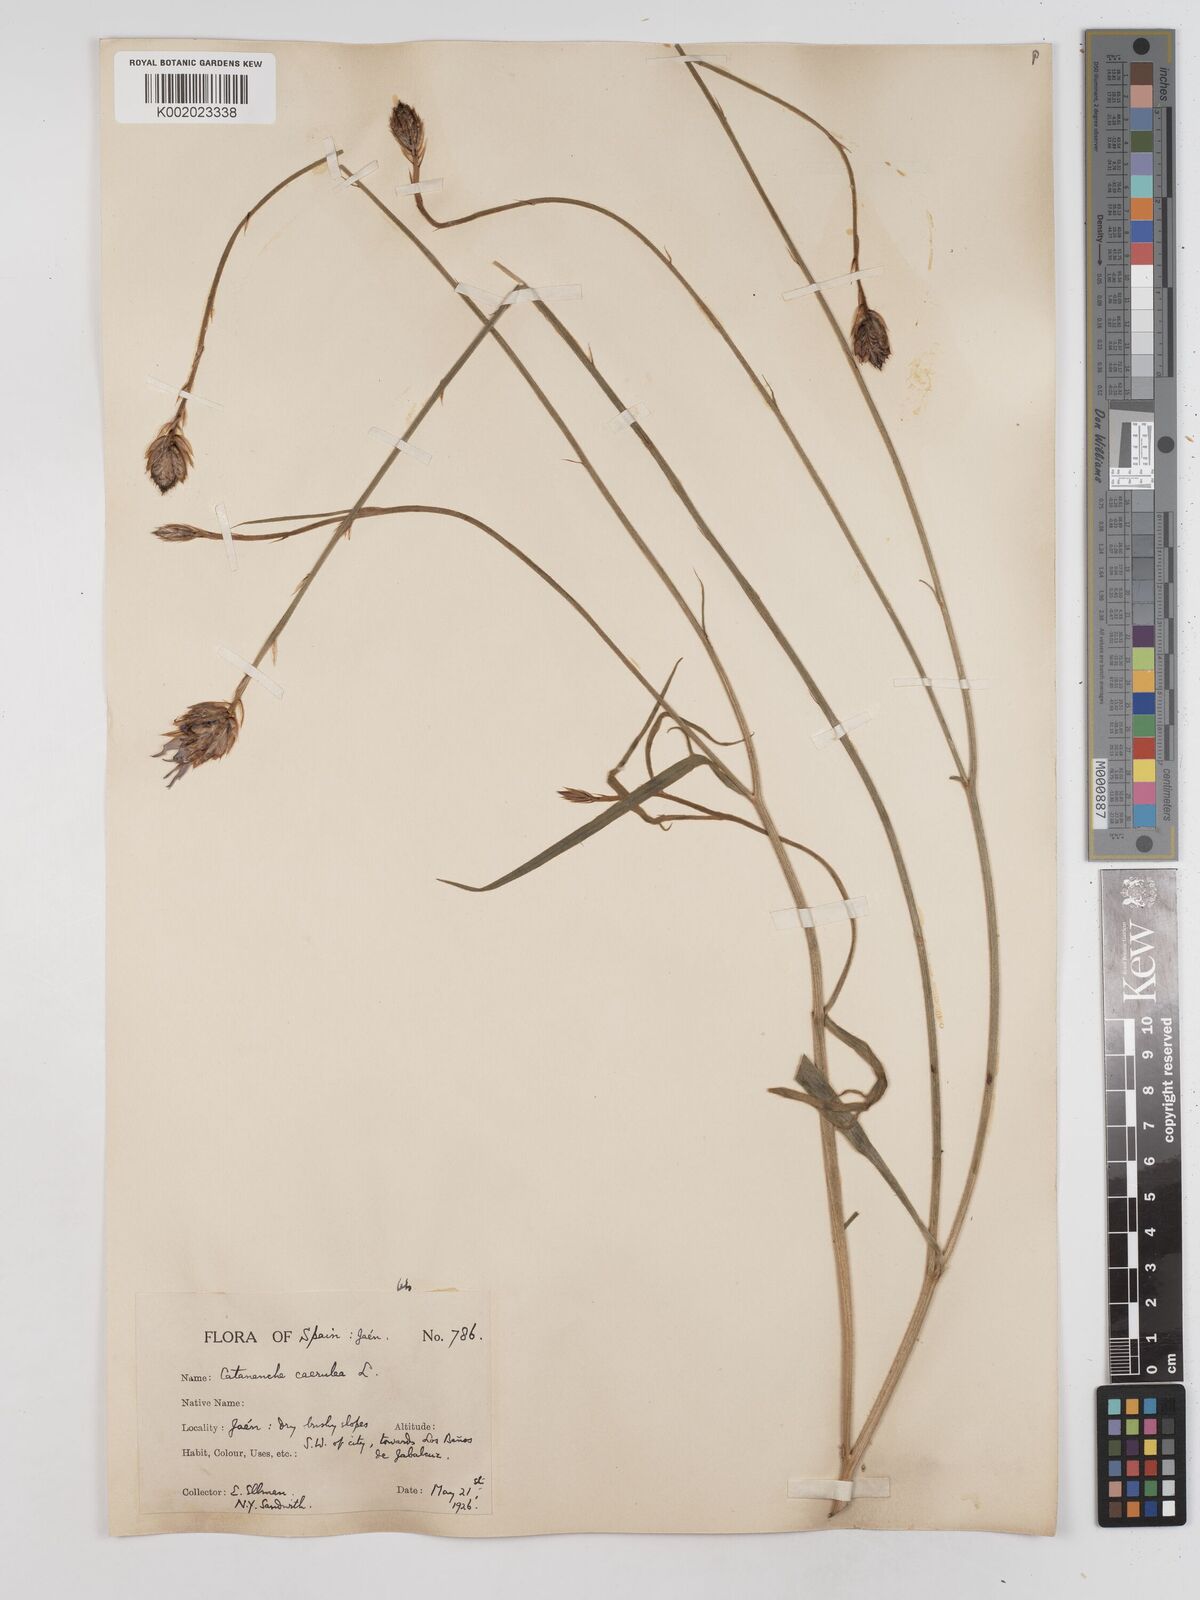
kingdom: Plantae
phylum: Tracheophyta
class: Magnoliopsida
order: Asterales
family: Asteraceae
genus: Catananche
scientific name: Catananche caerulea
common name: Blue cupidone
